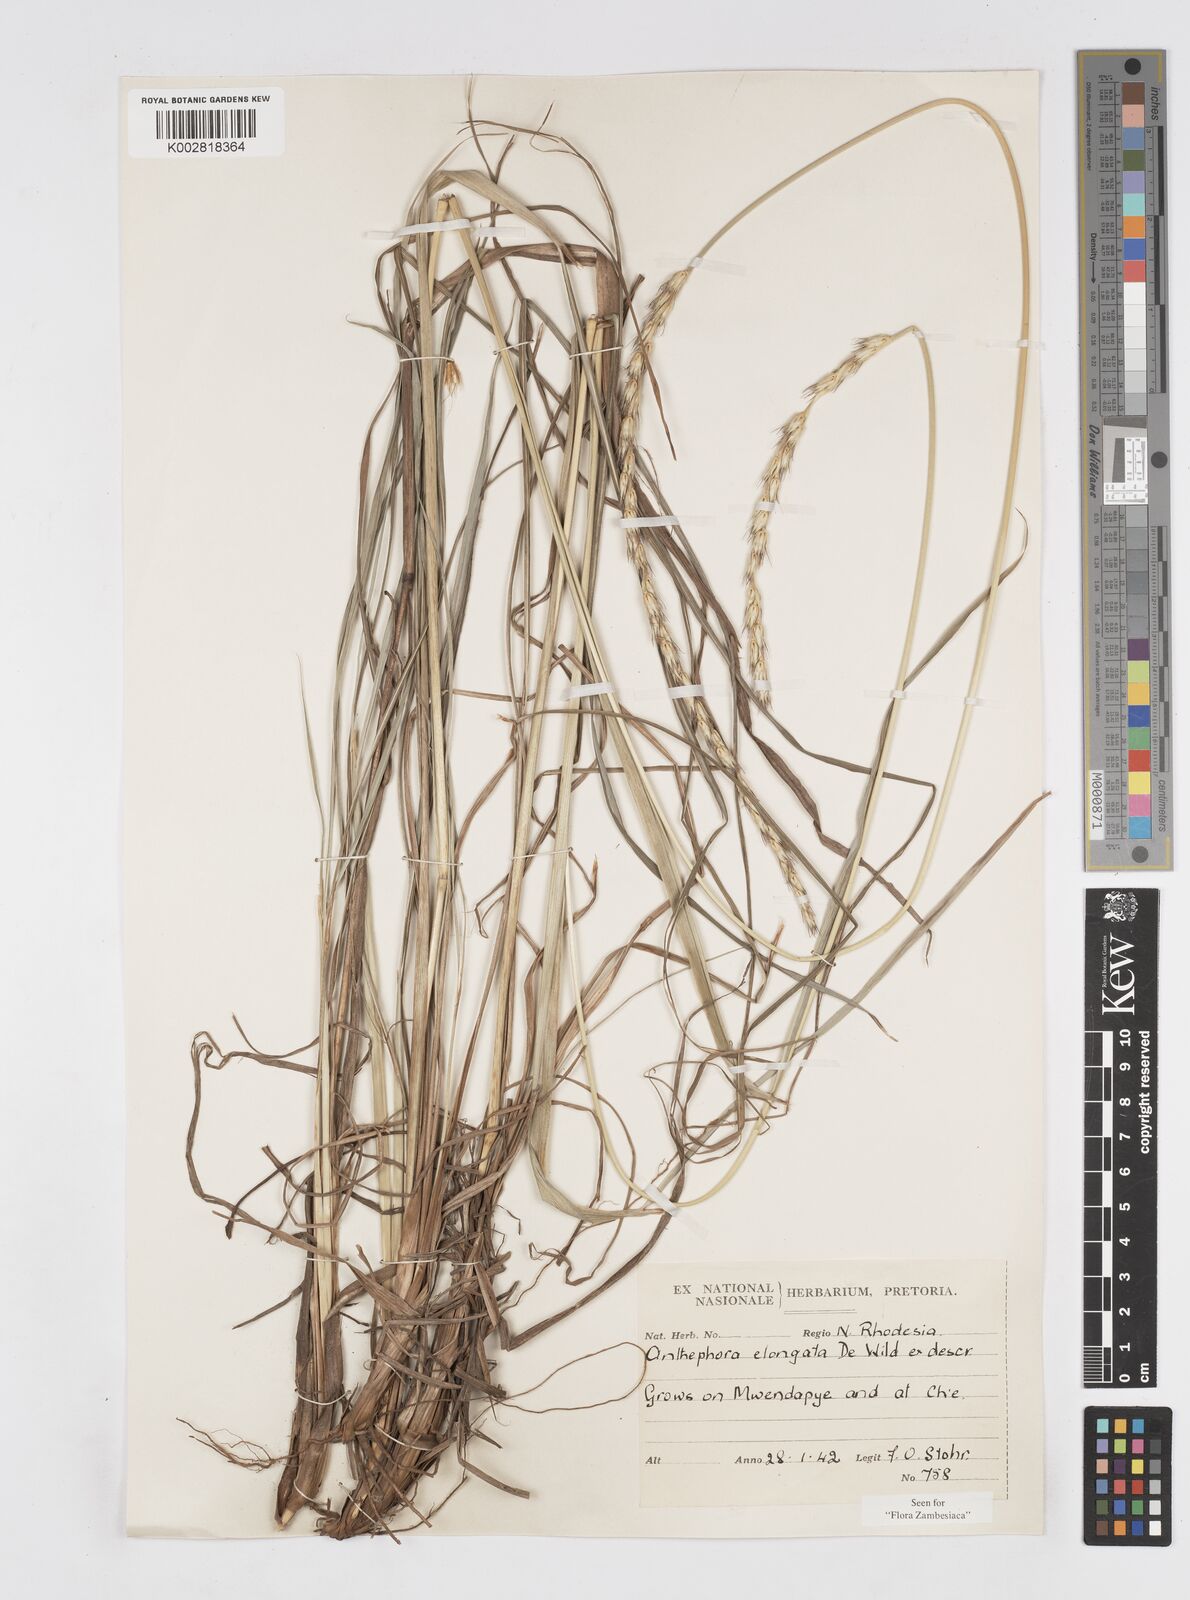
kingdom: Plantae
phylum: Tracheophyta
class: Liliopsida
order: Poales
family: Poaceae
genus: Anthephora
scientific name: Anthephora elongata
